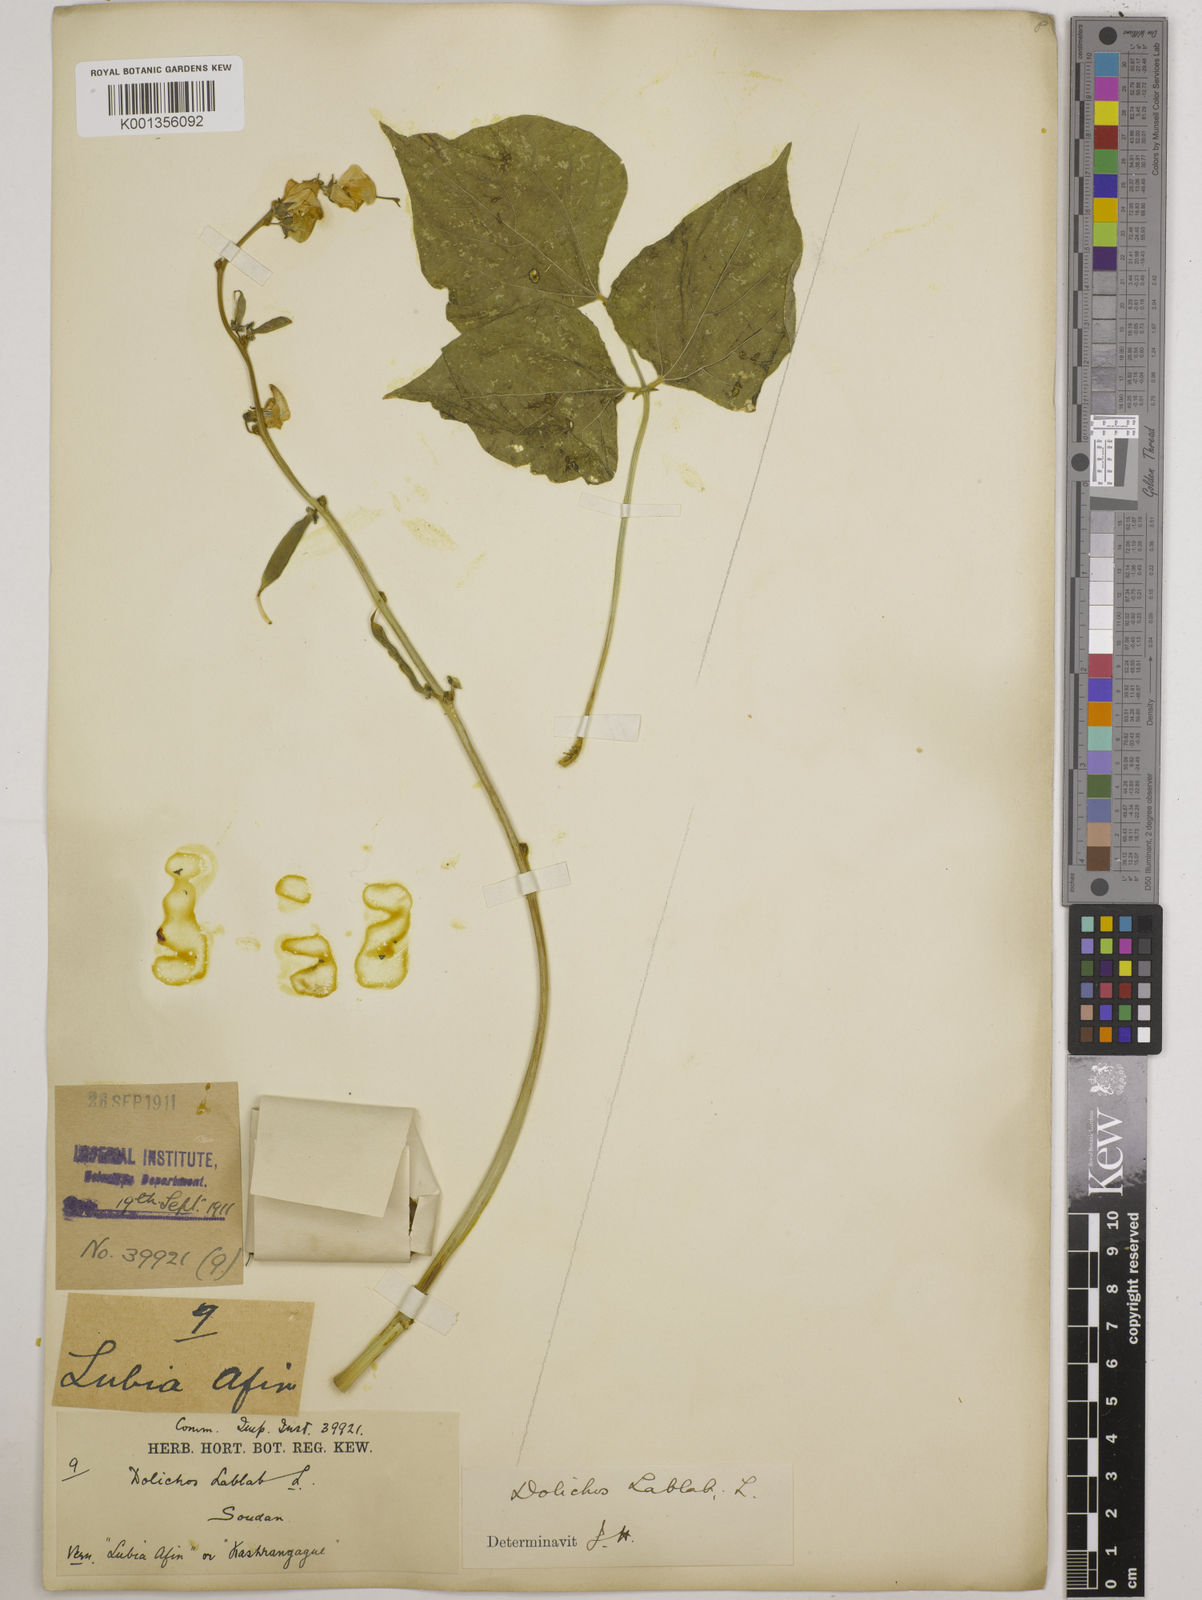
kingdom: Plantae
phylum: Tracheophyta
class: Magnoliopsida
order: Fabales
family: Fabaceae
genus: Lablab
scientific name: Lablab purpureus
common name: Lablab-bean
